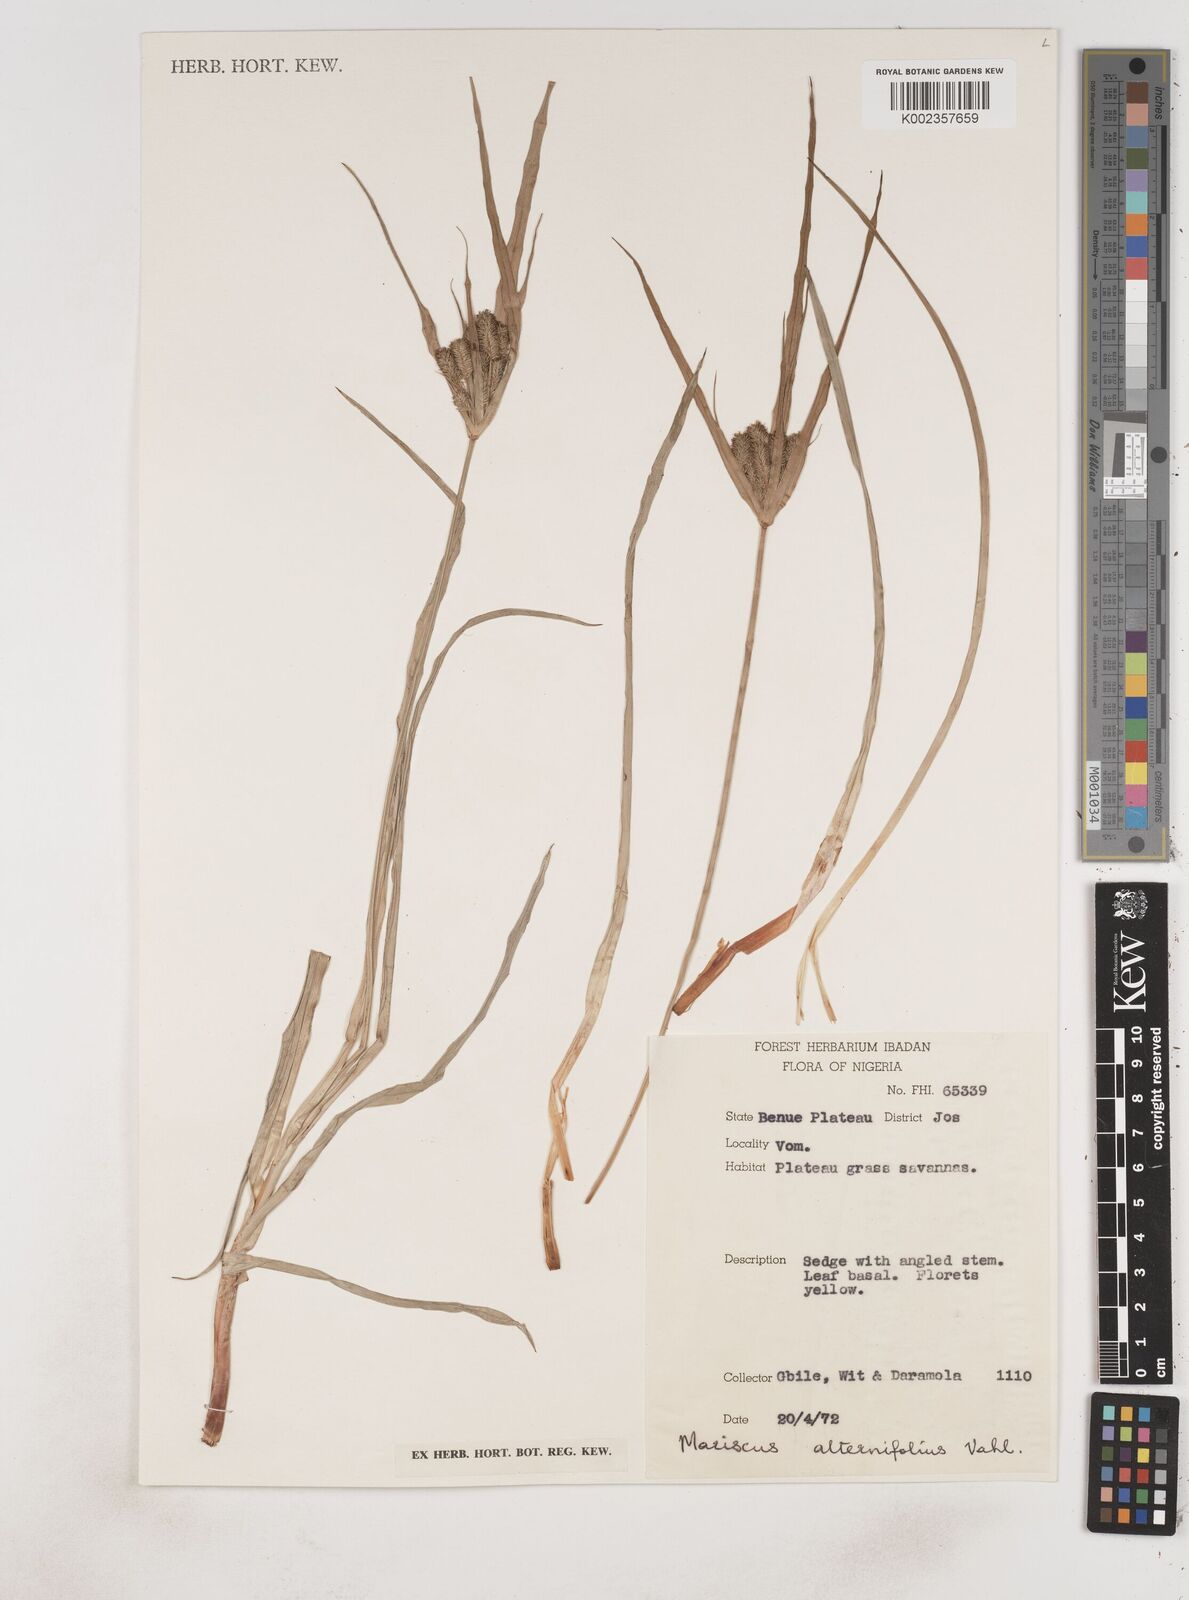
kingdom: Plantae
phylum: Tracheophyta
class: Liliopsida
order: Poales
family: Cyperaceae
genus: Cyperus
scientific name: Cyperus cyperoides
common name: Pacific island flat sedge
